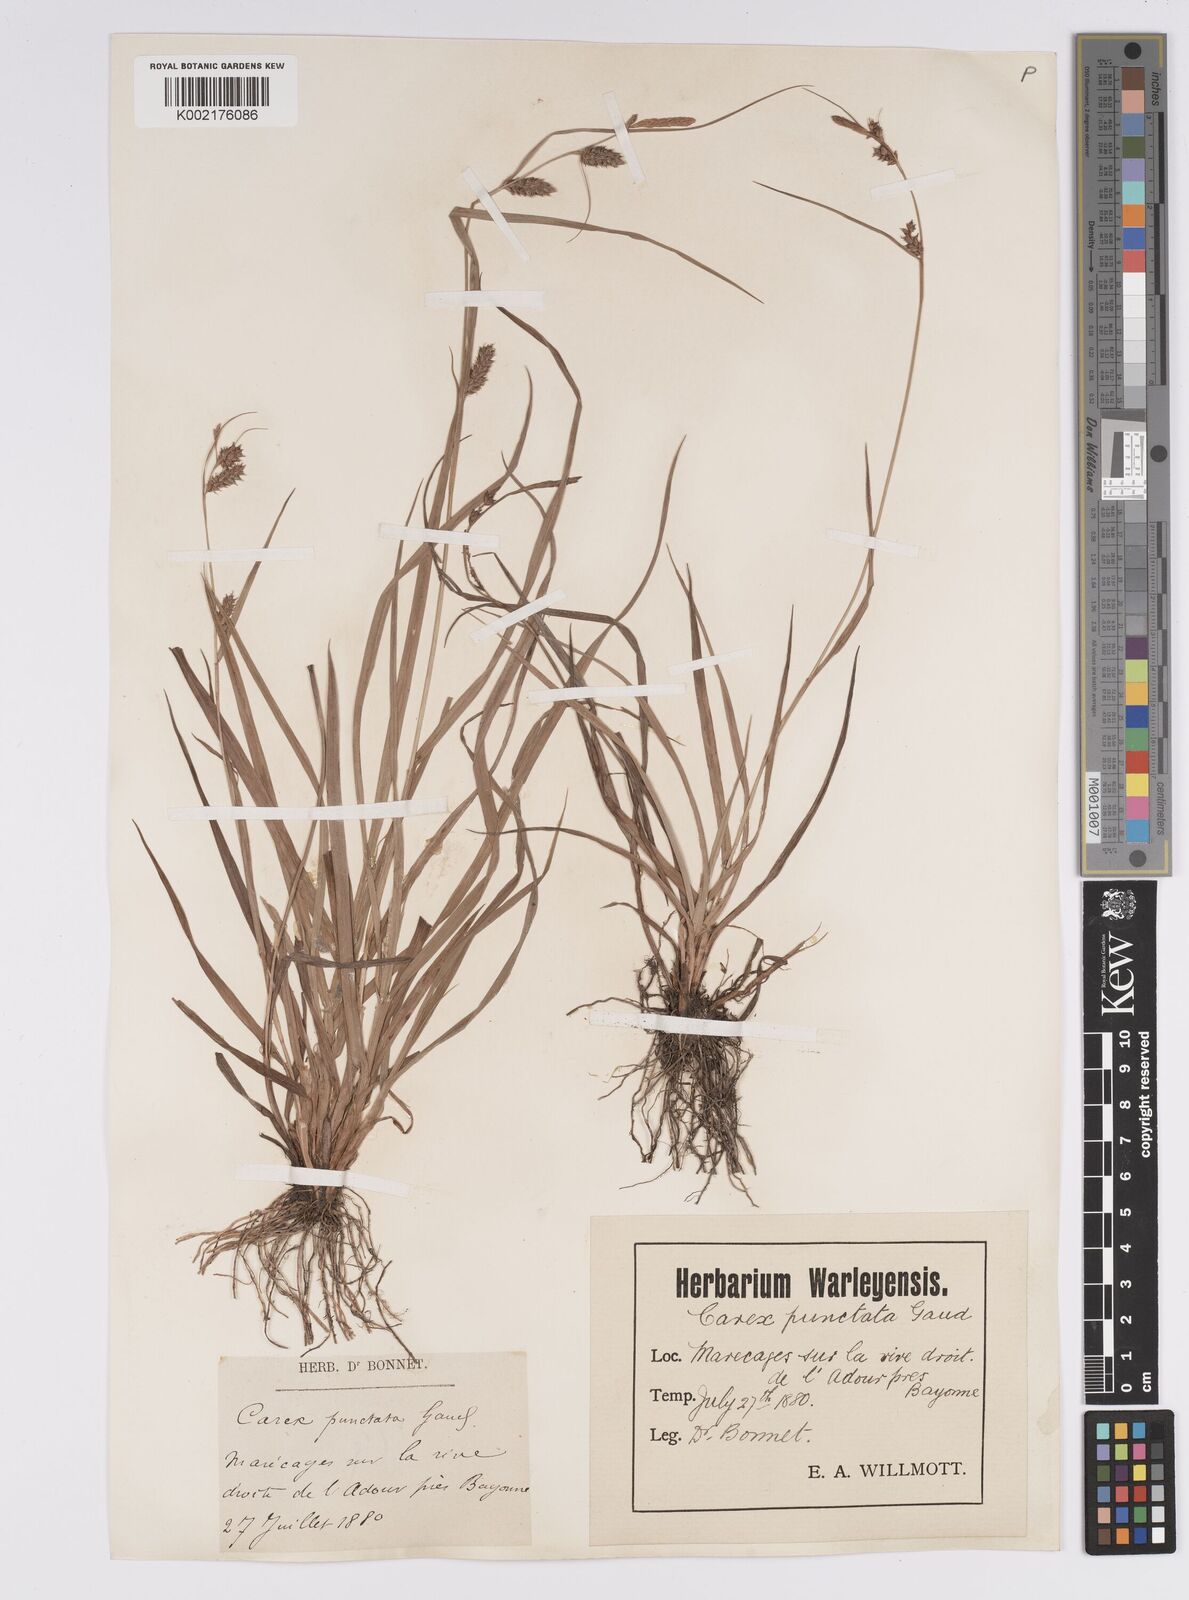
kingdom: Plantae
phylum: Tracheophyta
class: Liliopsida
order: Poales
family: Cyperaceae
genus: Carex
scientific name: Carex punctata
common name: Dotted sedge
